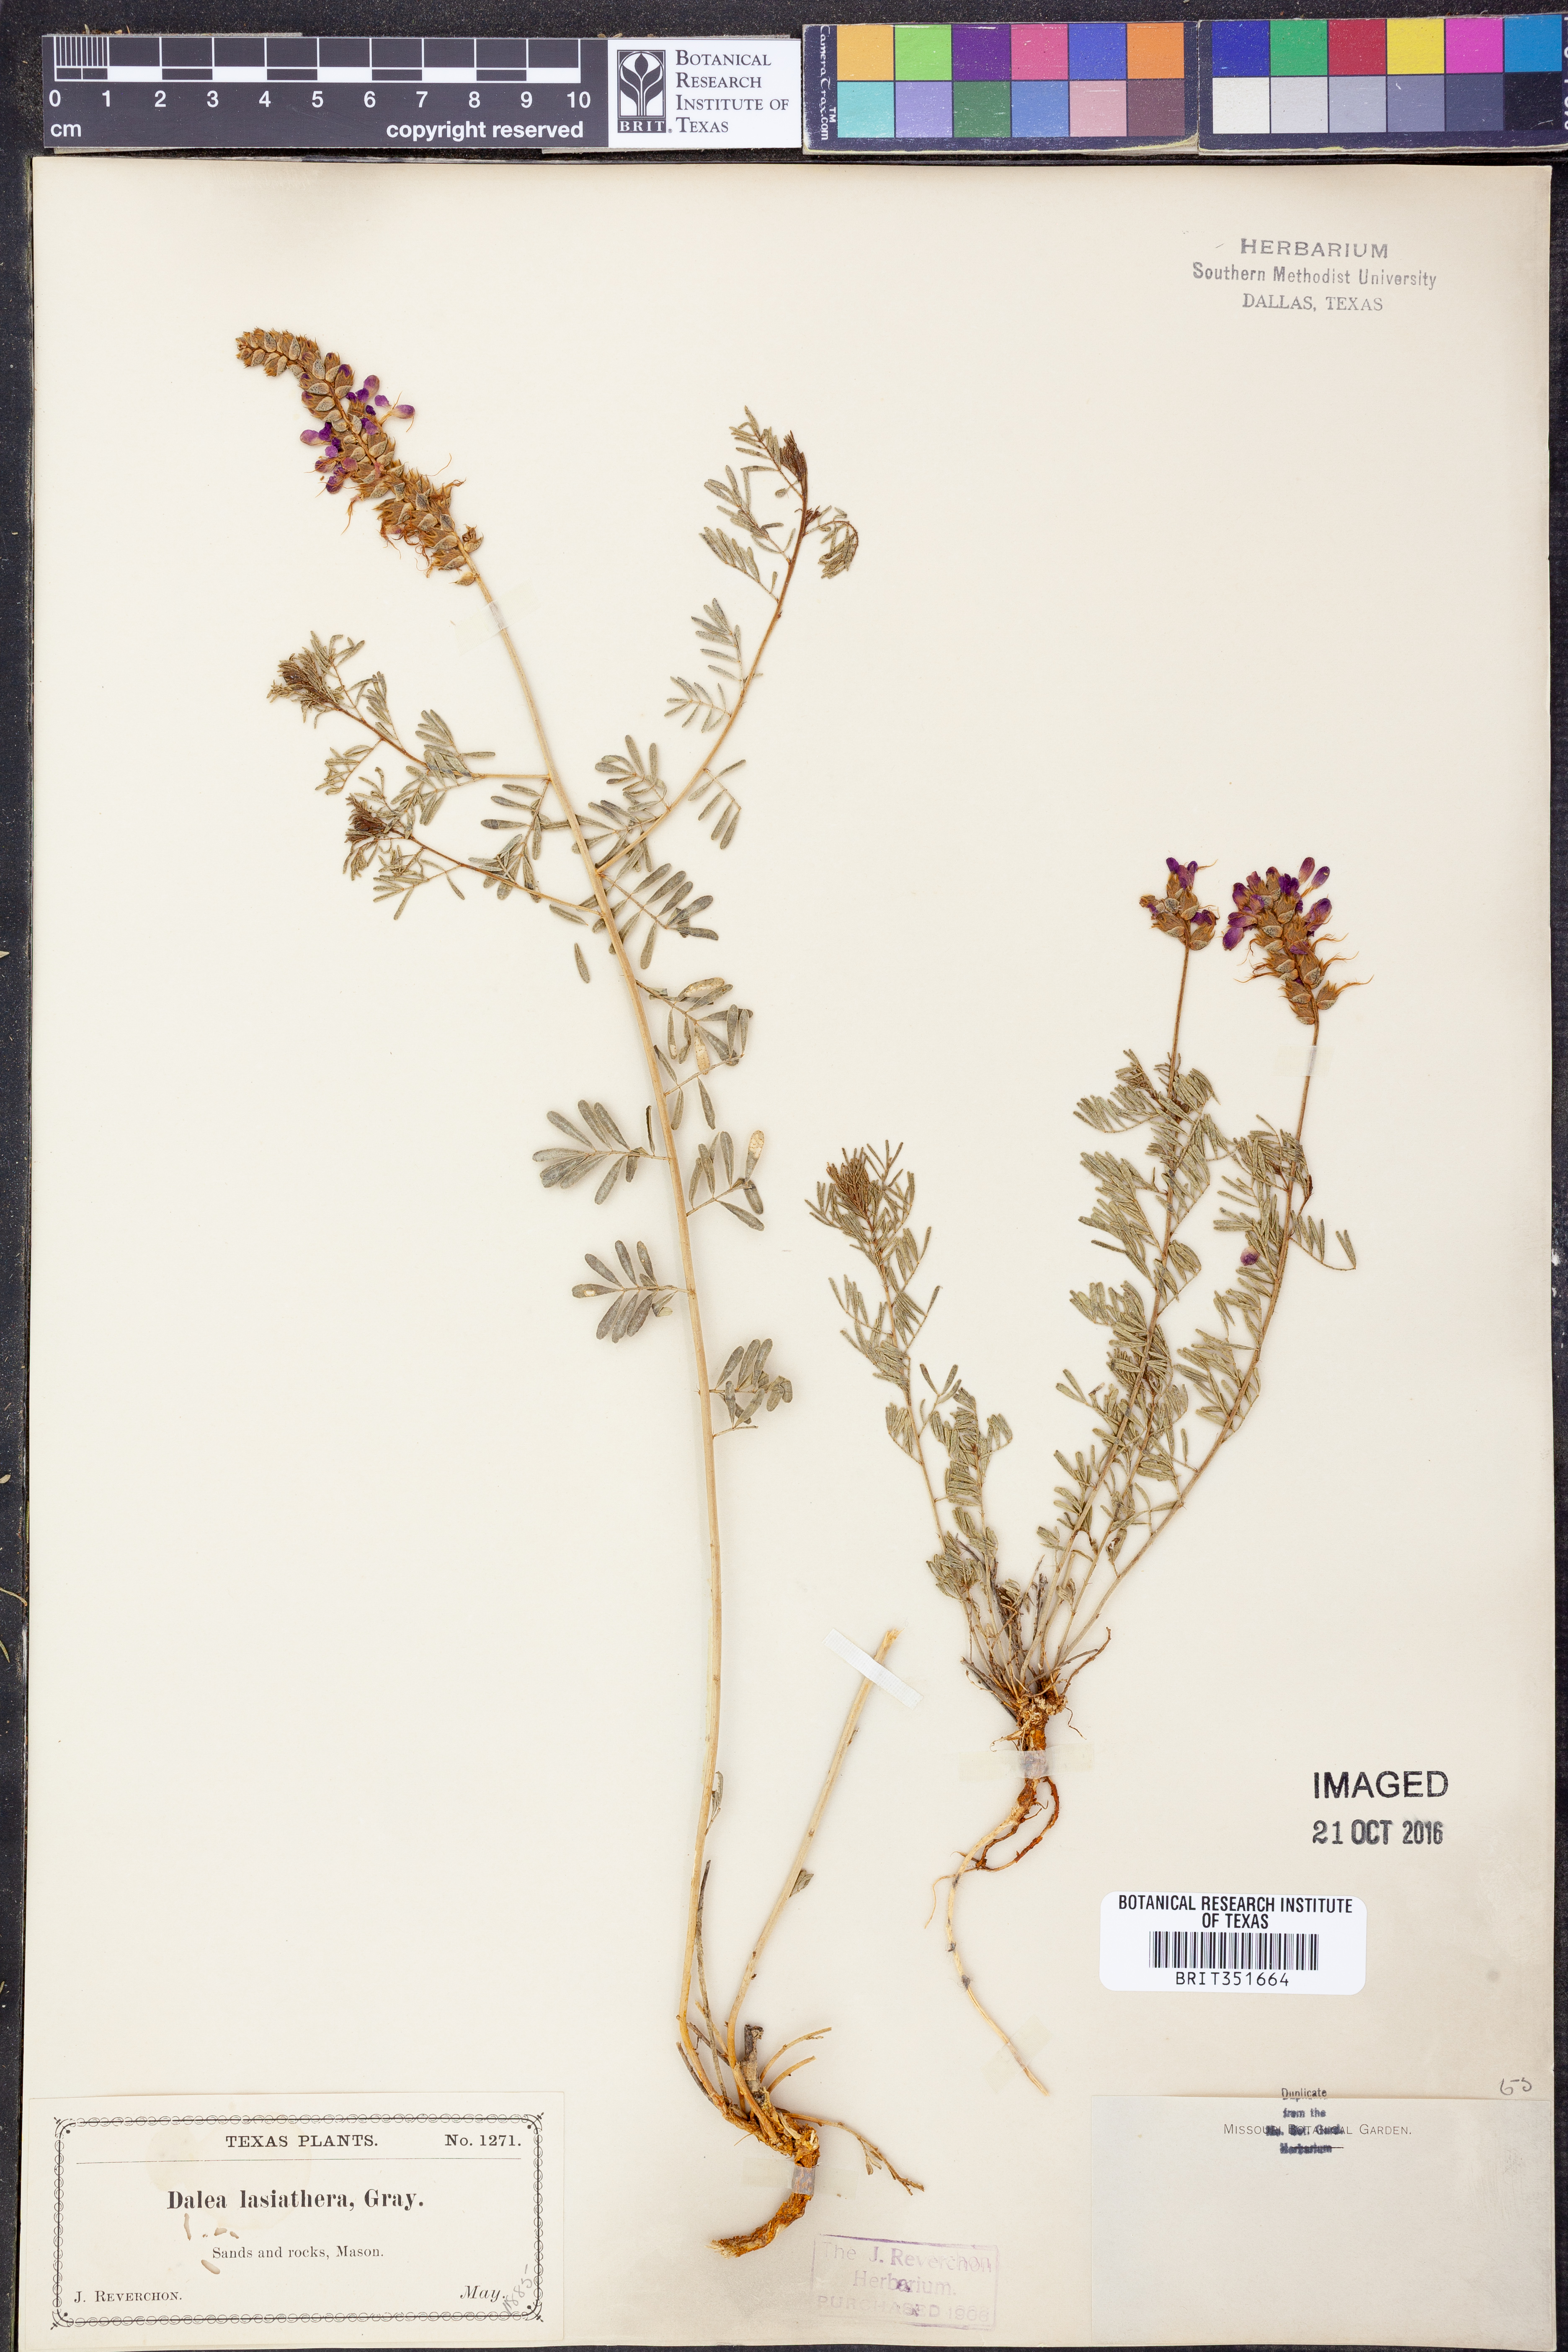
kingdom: Plantae
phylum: Tracheophyta
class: Magnoliopsida
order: Fabales
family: Fabaceae
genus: Dalea
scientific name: Dalea lasiathera
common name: Purple prairie-clover
